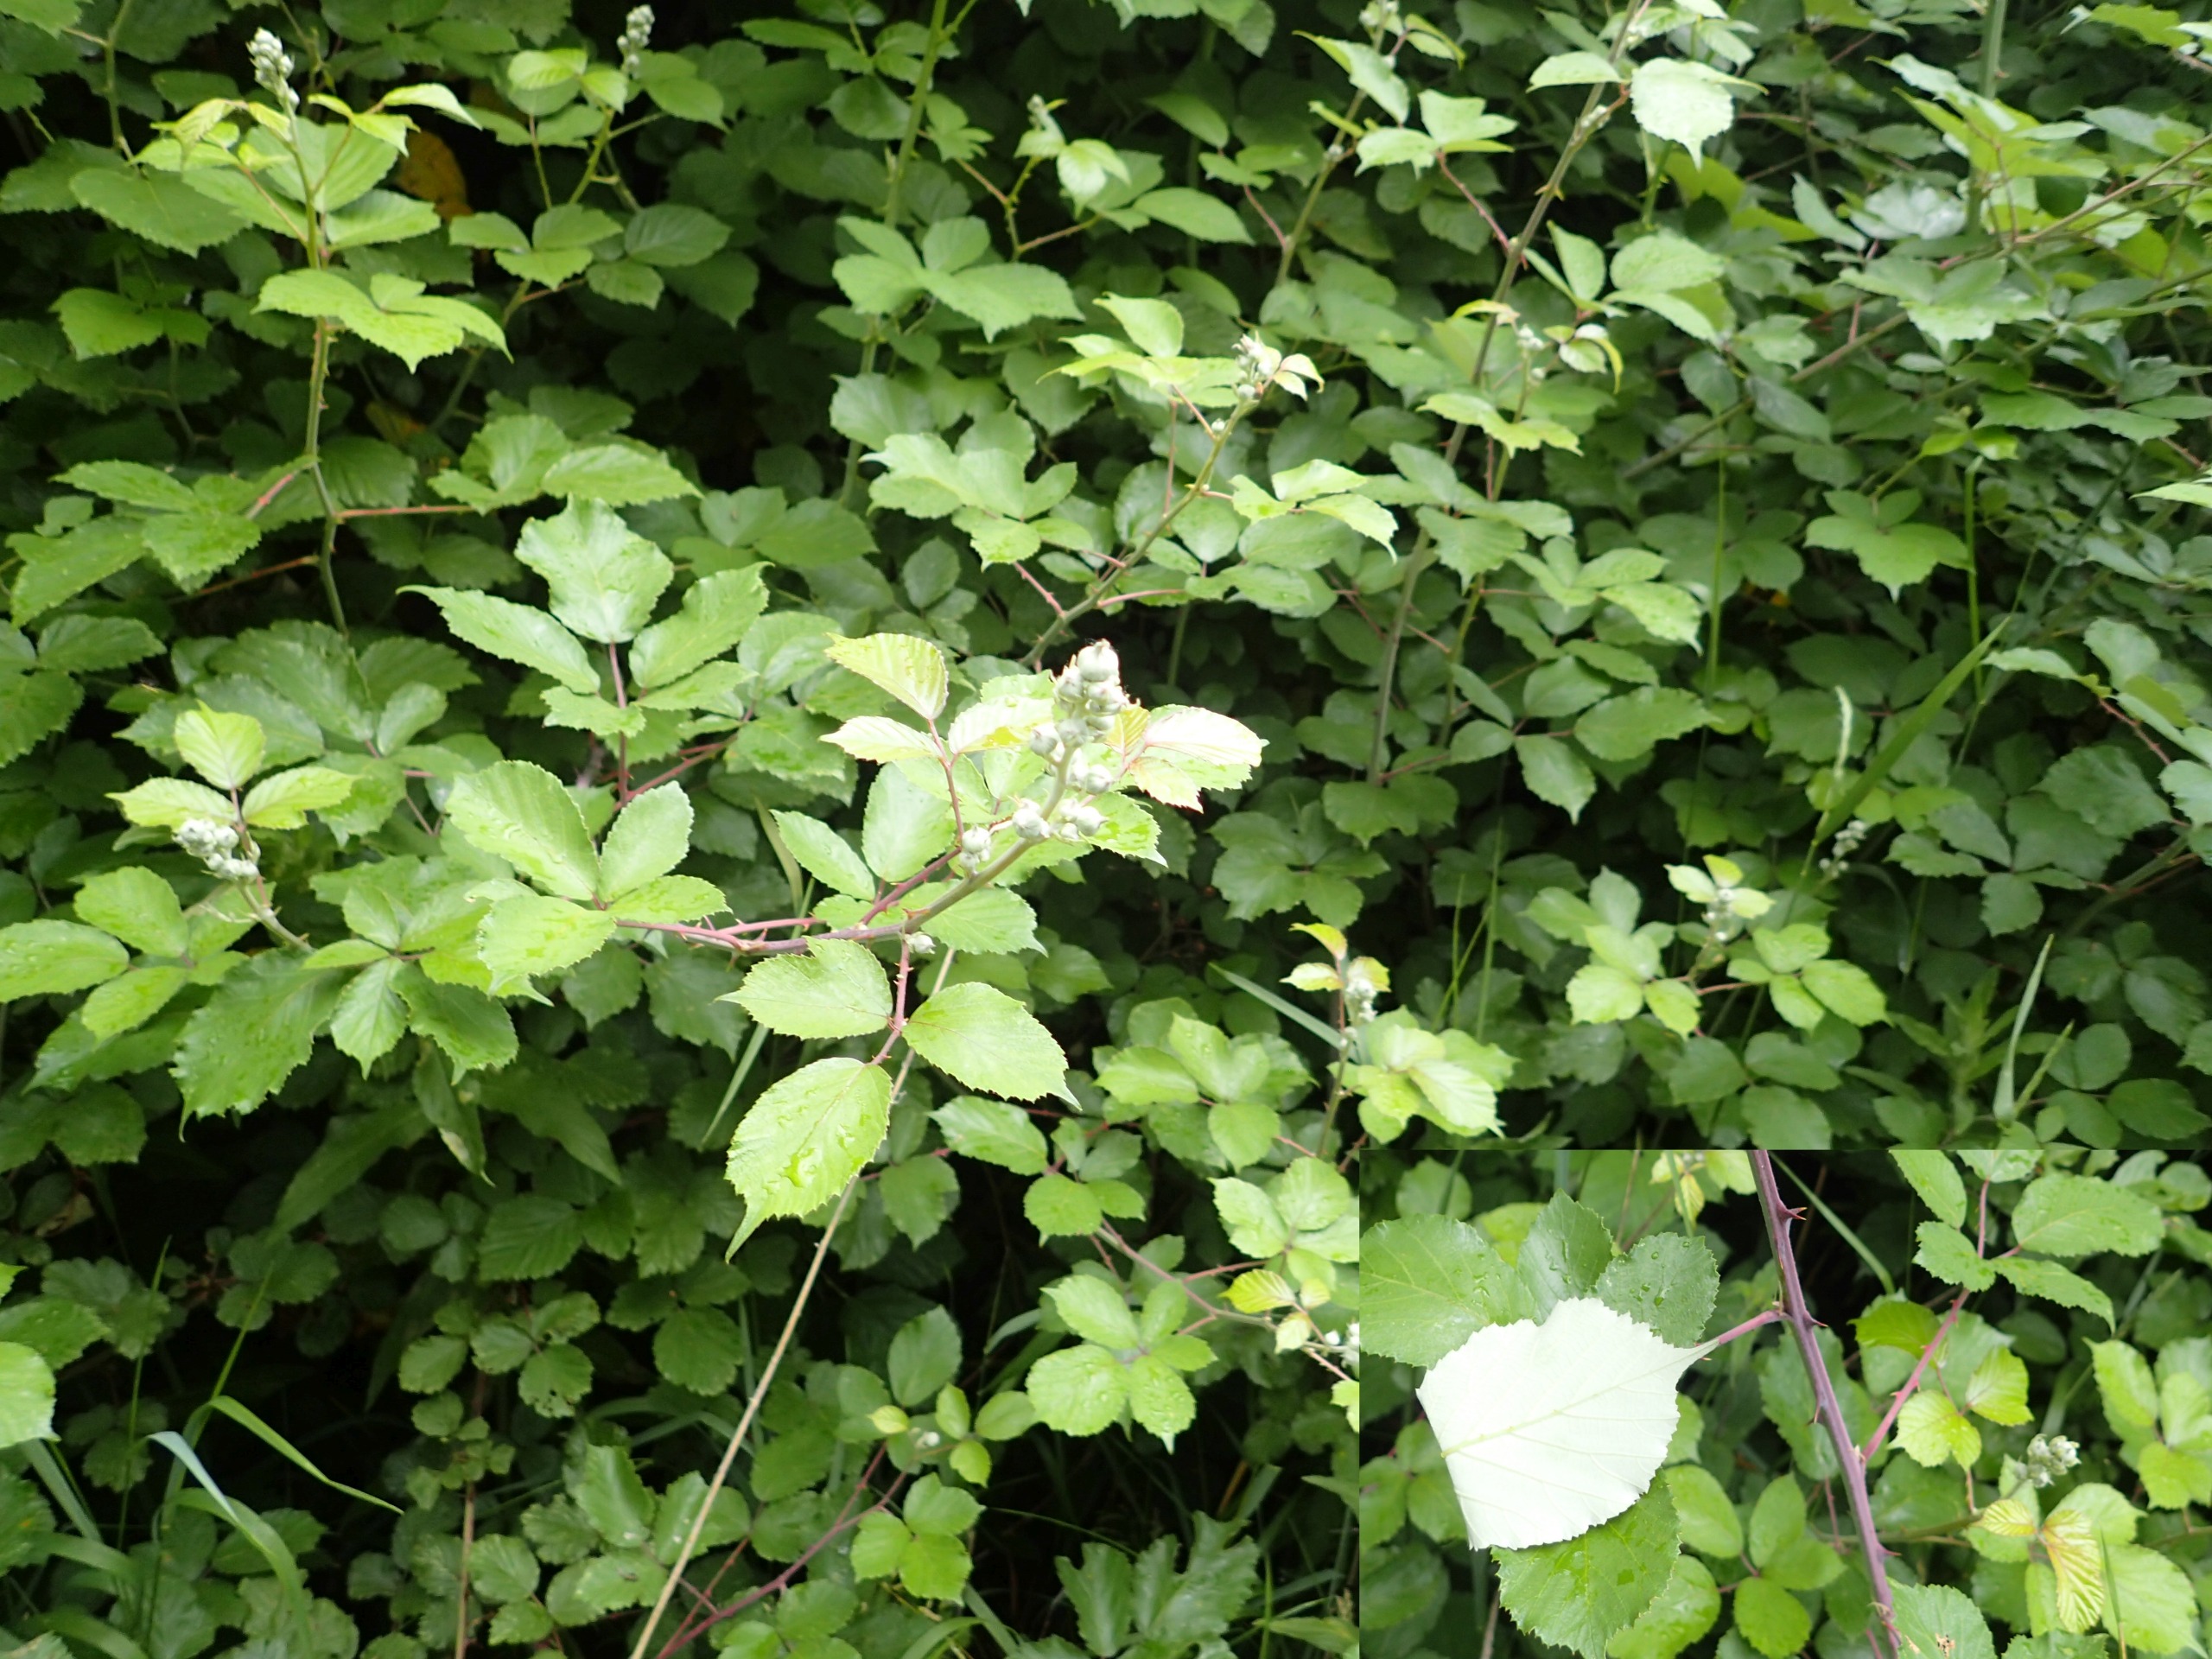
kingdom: Plantae
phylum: Tracheophyta
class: Magnoliopsida
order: Rosales
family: Rosaceae
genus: Rubus
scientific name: Rubus ulmifolius
